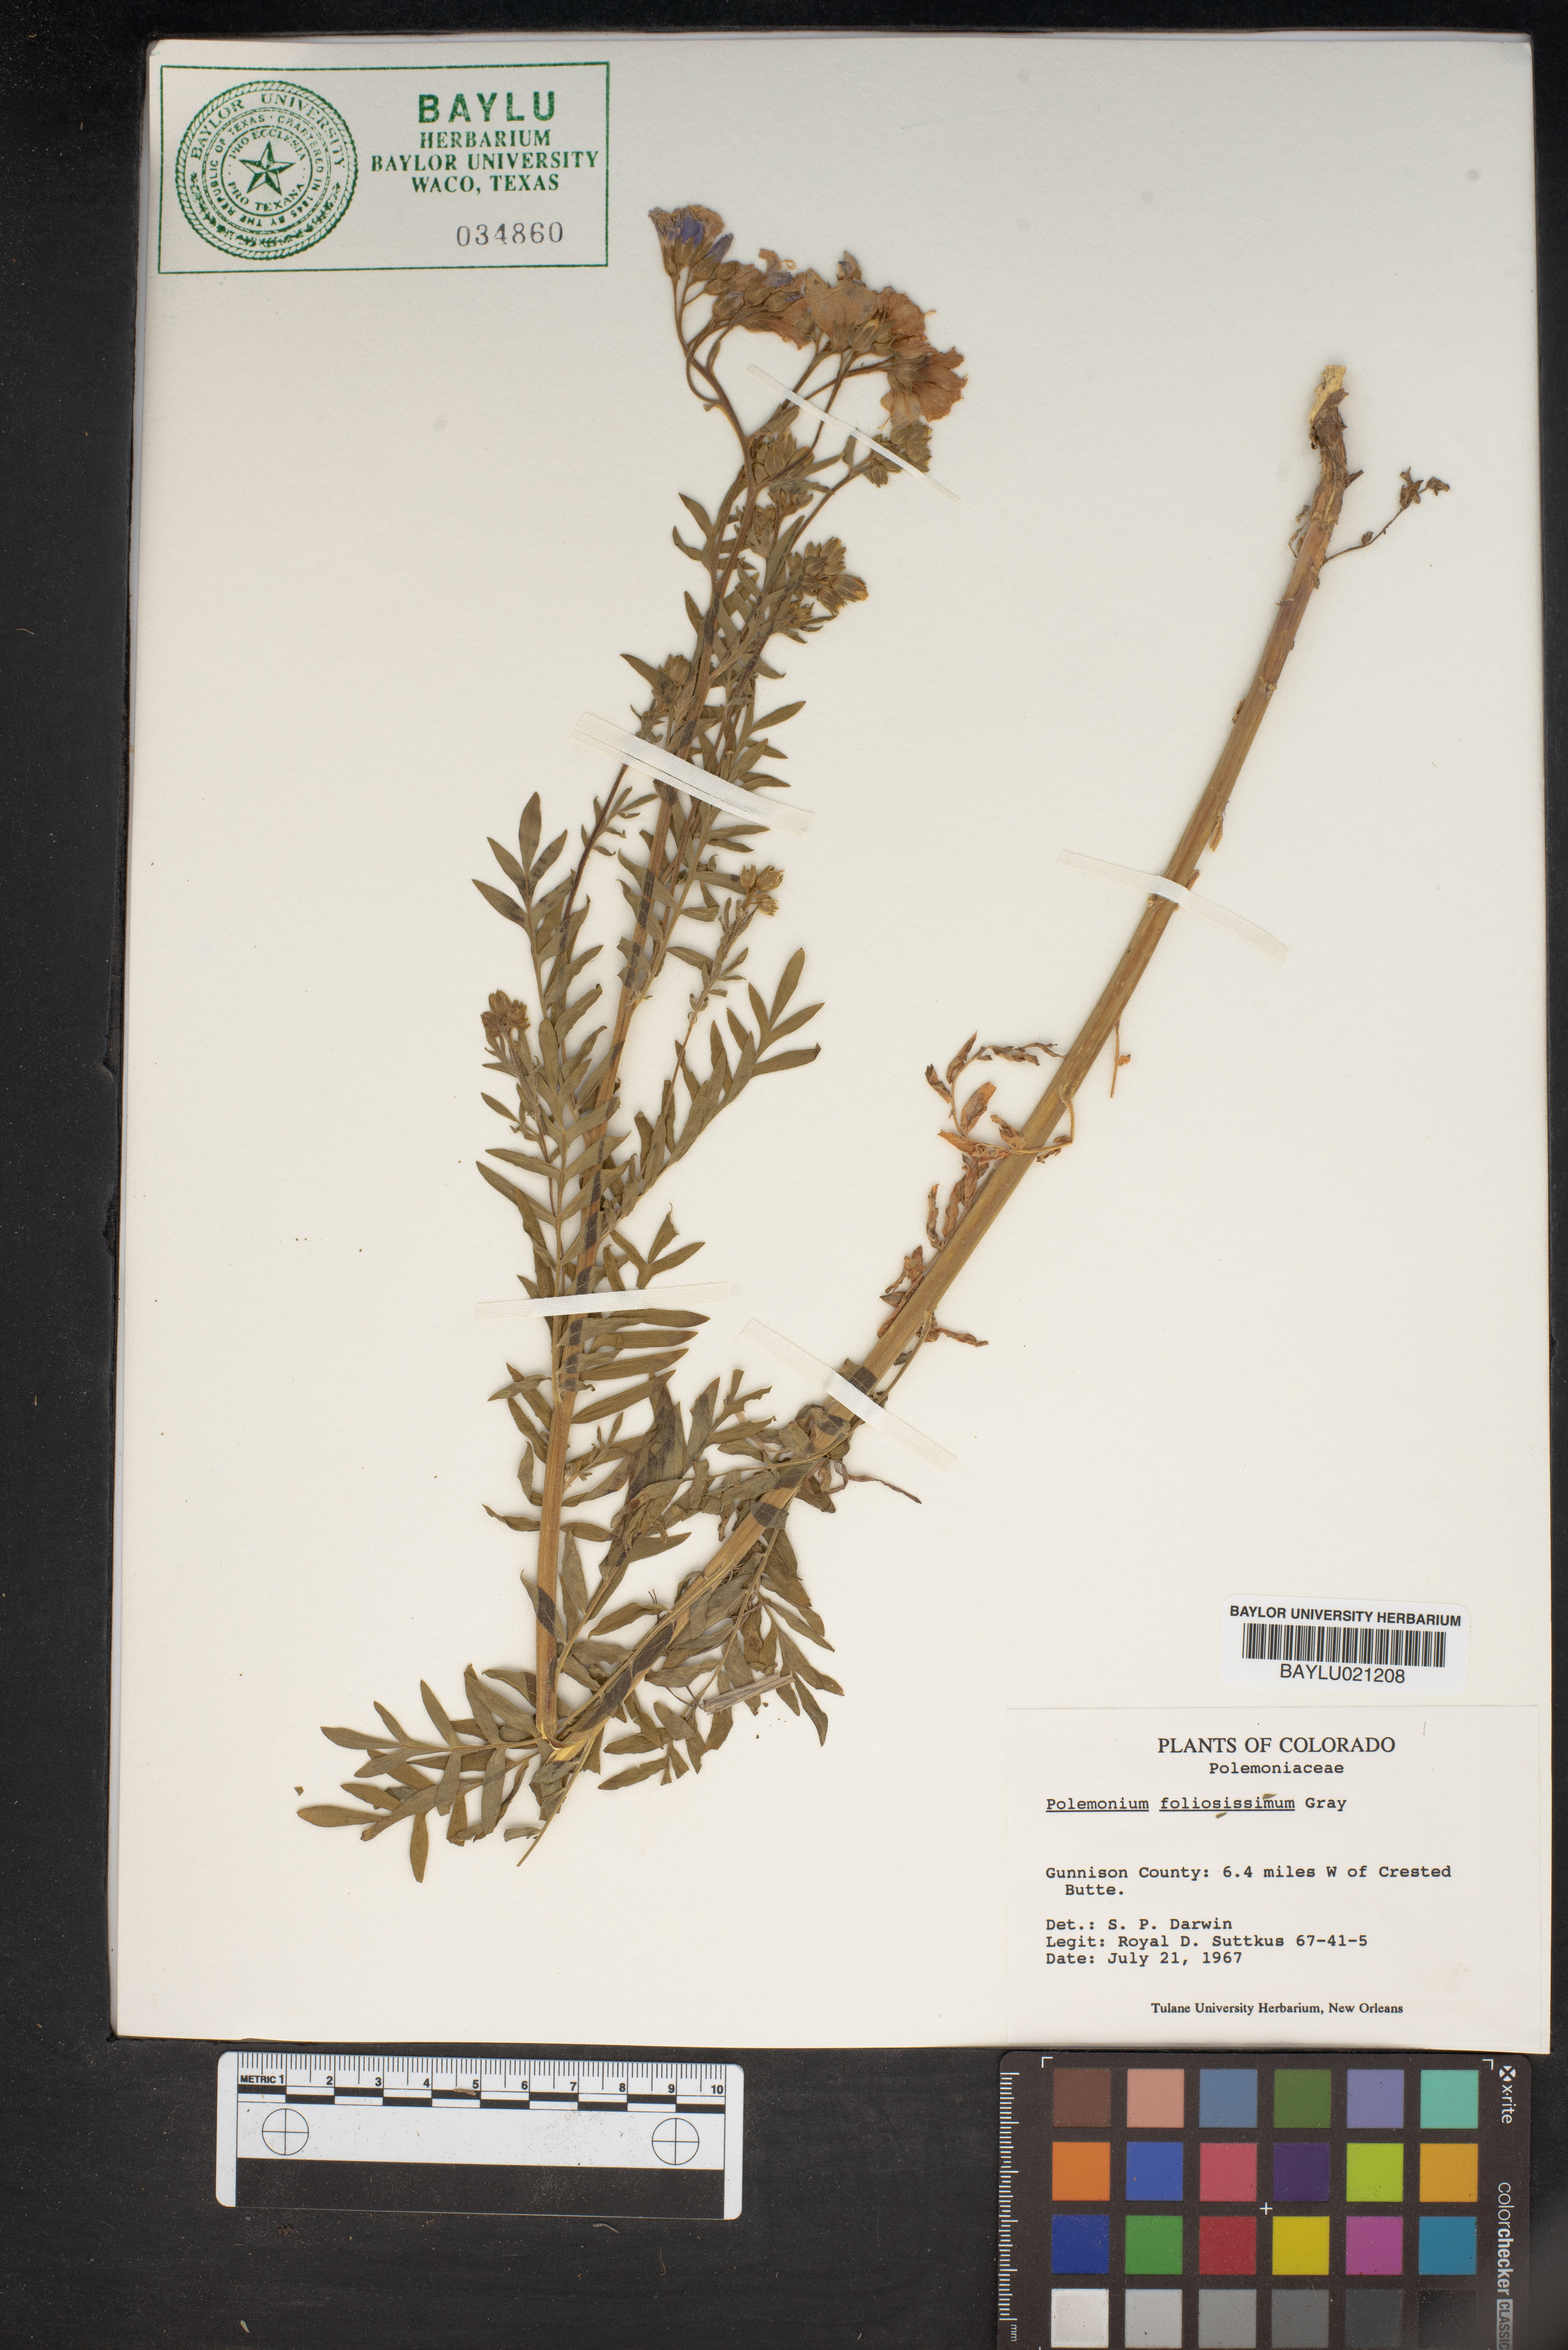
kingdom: Plantae
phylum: Tracheophyta
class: Magnoliopsida
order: Ericales
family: Polemoniaceae
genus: Polemonium
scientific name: Polemonium foliosissimum
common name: Leafy jacob's-ladder
